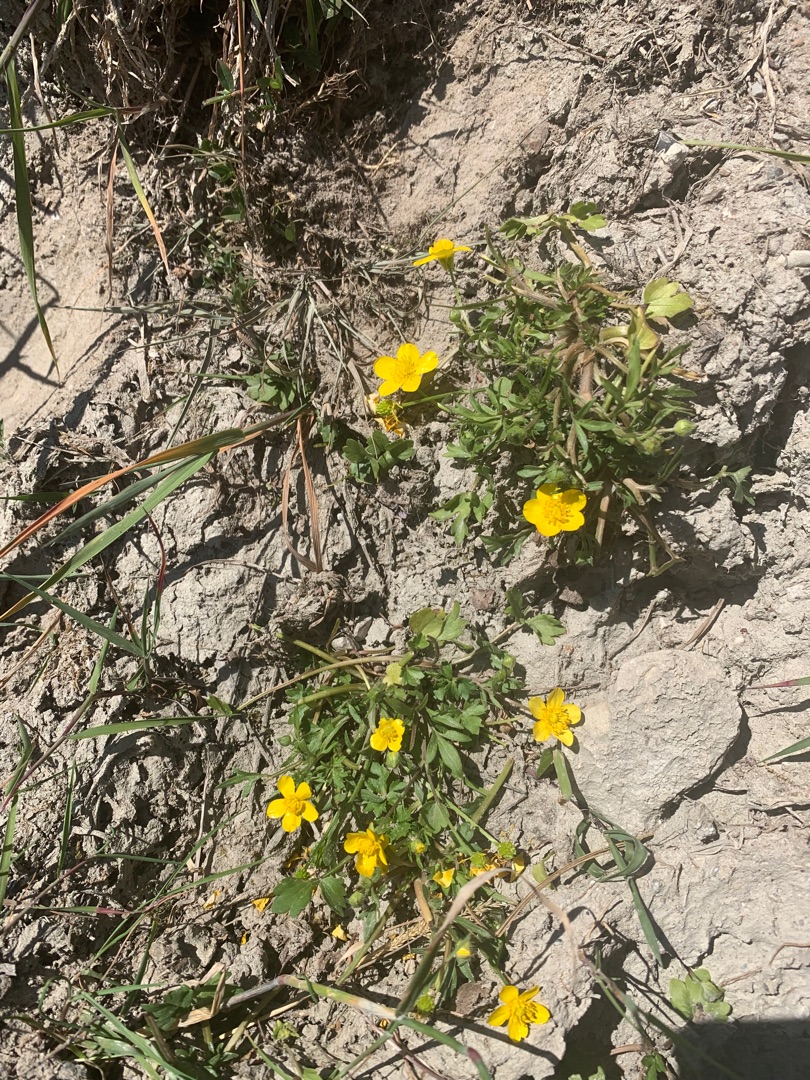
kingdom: Plantae
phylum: Tracheophyta
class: Magnoliopsida
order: Ranunculales
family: Ranunculaceae
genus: Ranunculus
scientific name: Ranunculus sardous
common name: Stivhåret ranunkel
